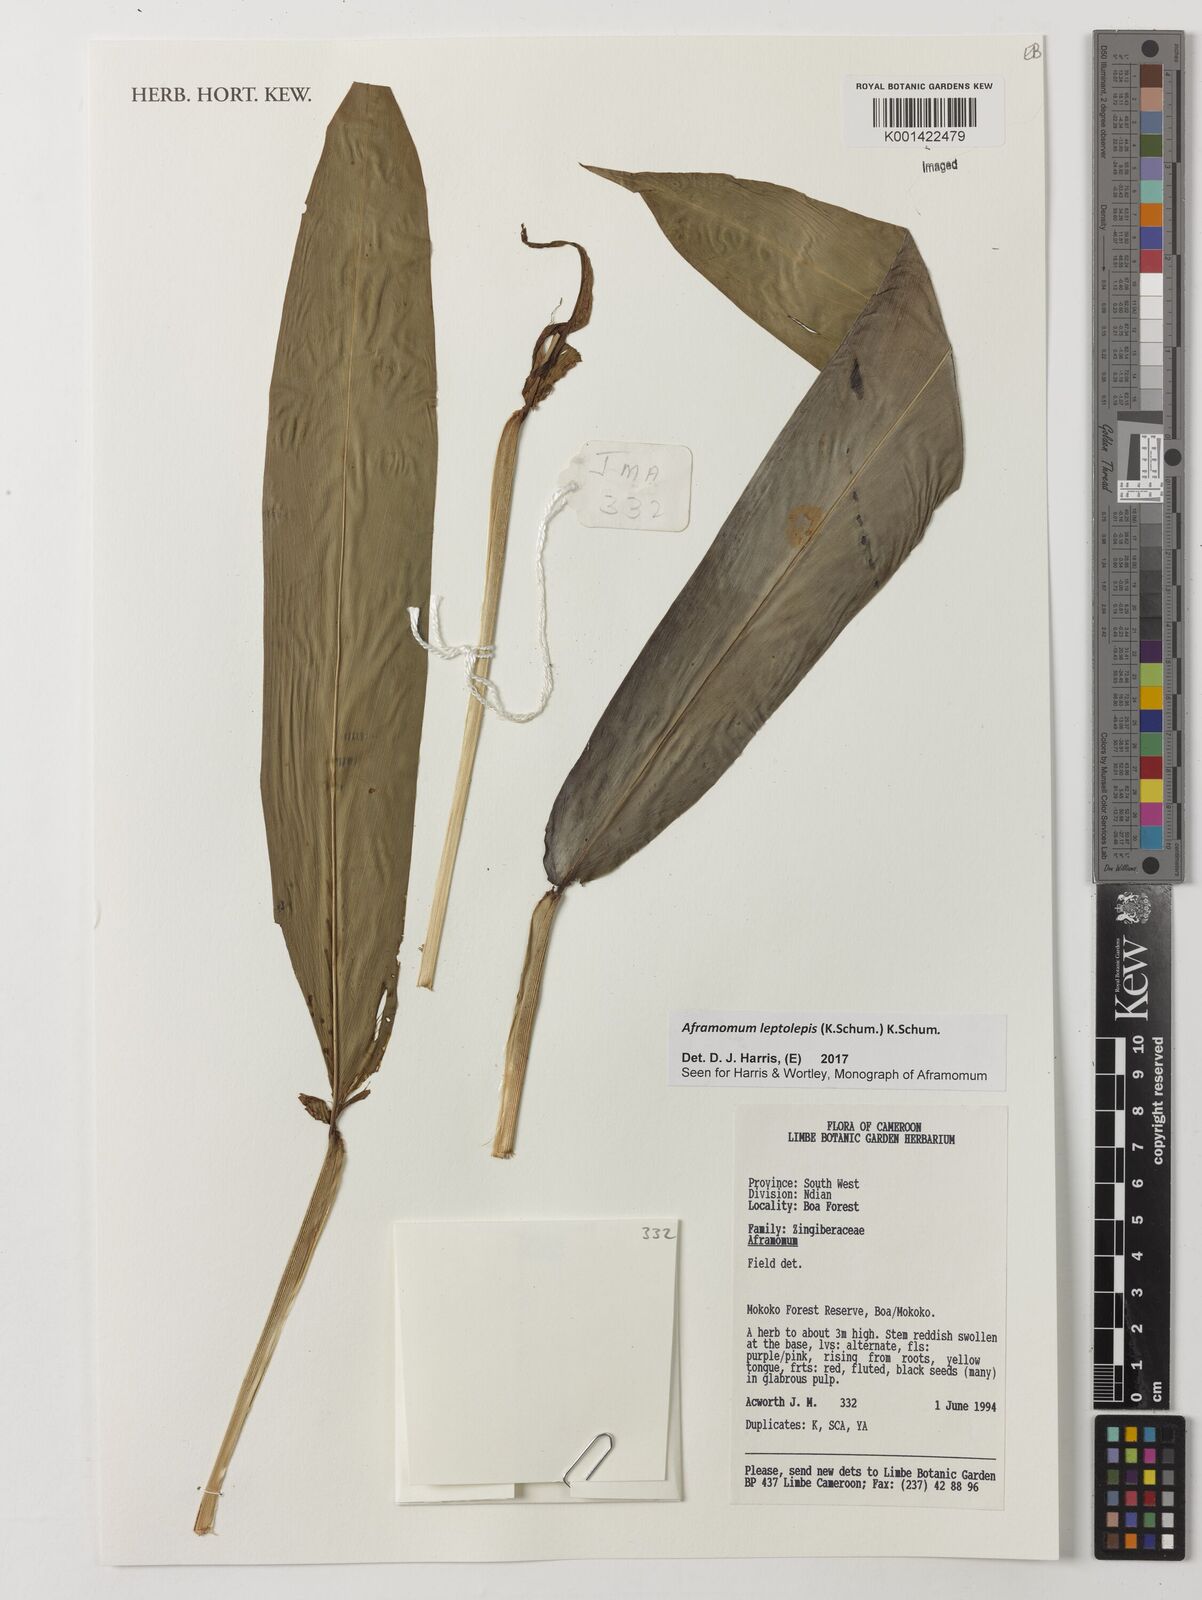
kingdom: Plantae
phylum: Tracheophyta
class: Liliopsida
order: Zingiberales
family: Zingiberaceae
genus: Aframomum
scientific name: Aframomum leptolepis
